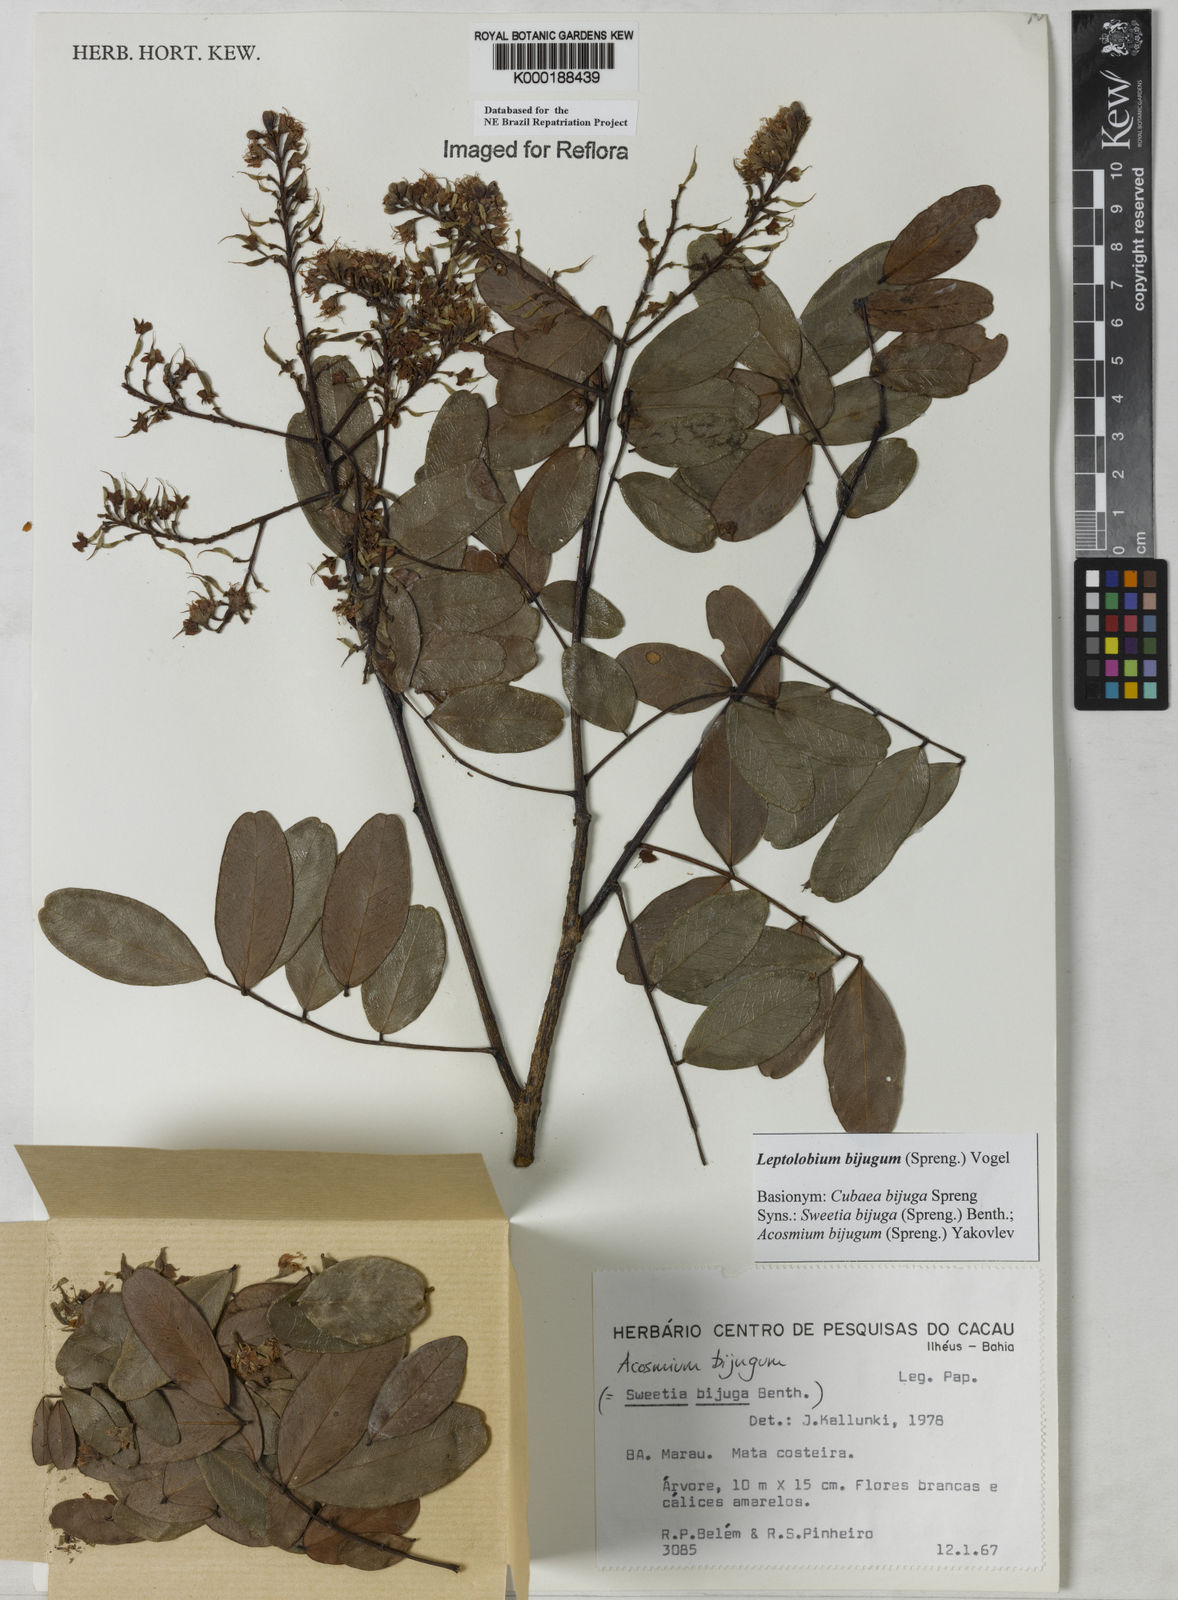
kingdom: Plantae
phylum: Tracheophyta
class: Magnoliopsida
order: Fabales
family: Fabaceae
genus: Leptolobium
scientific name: Leptolobium bijugum
